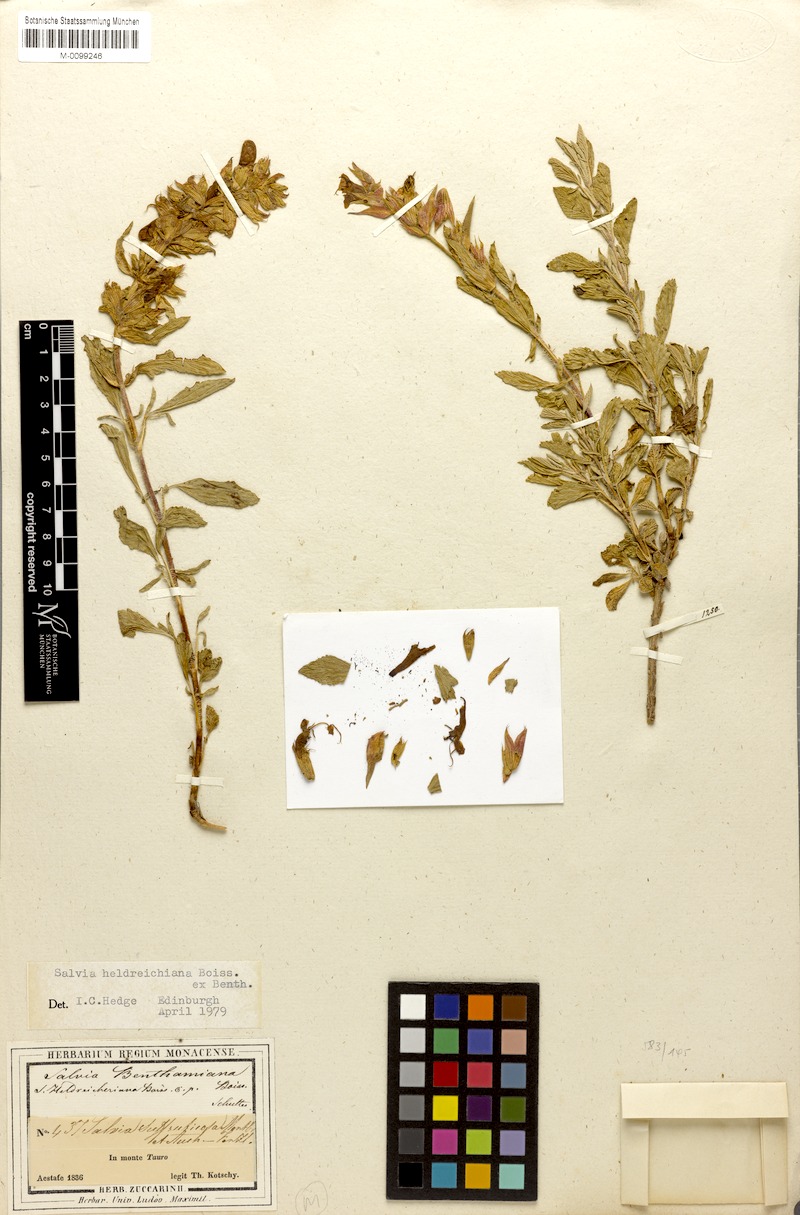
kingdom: Plantae
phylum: Tracheophyta
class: Magnoliopsida
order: Lamiales
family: Lamiaceae
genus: Salvia
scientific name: Salvia heldreichiana
